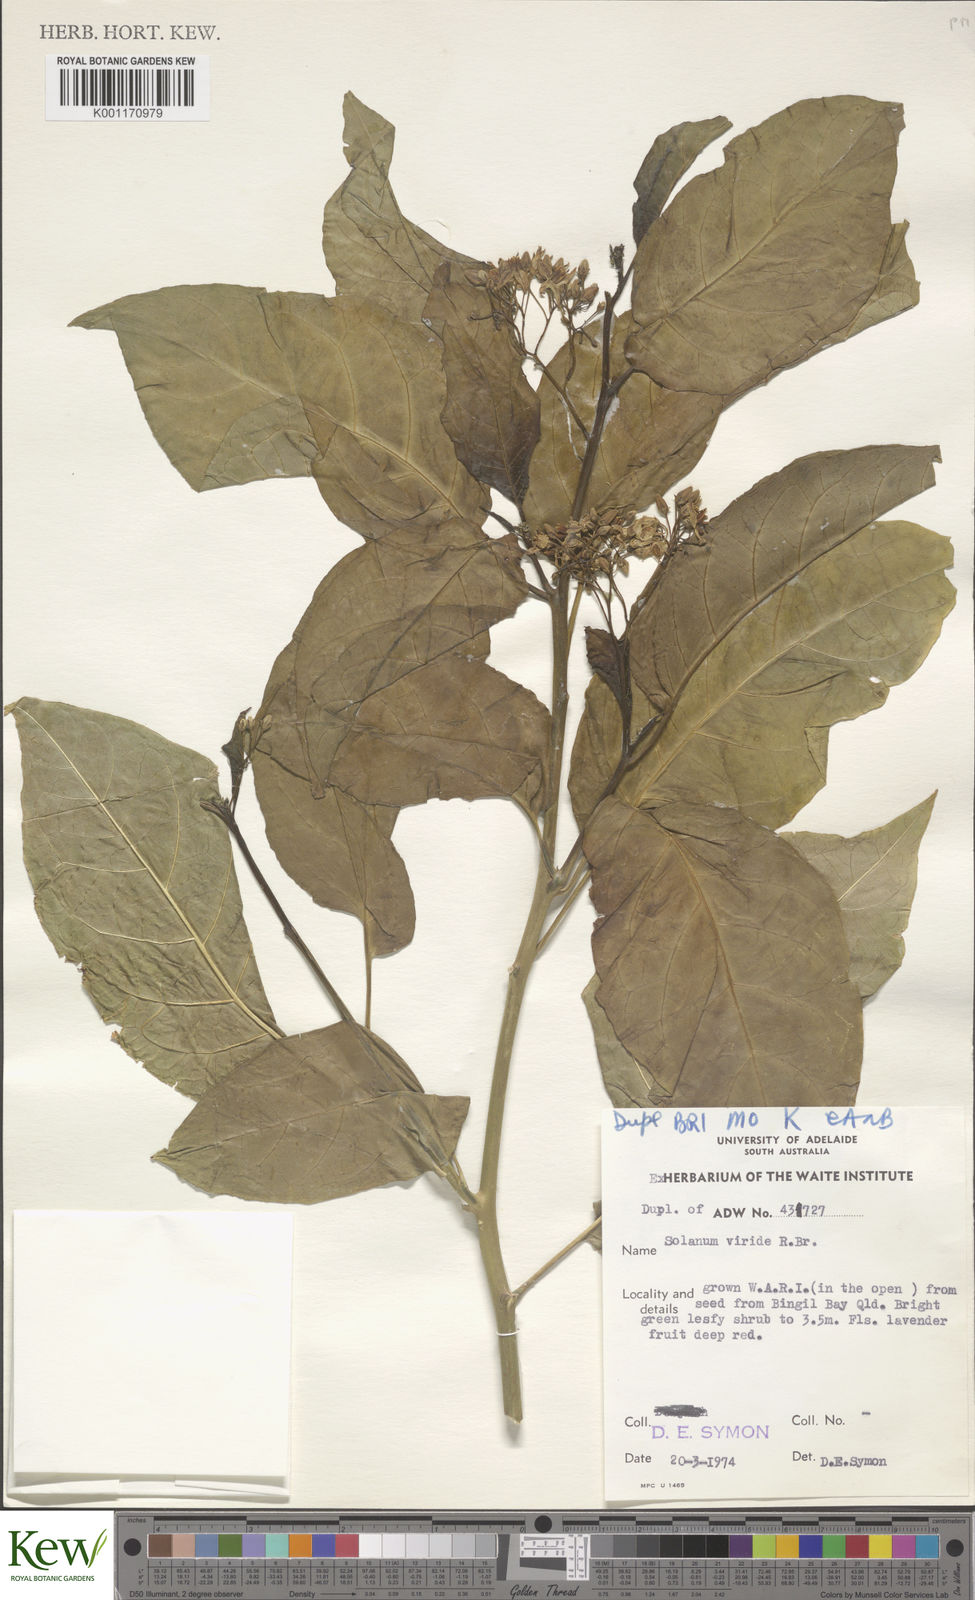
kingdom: Plantae
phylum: Tracheophyta
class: Magnoliopsida
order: Solanales
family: Solanaceae
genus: Solanum
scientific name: Solanum
